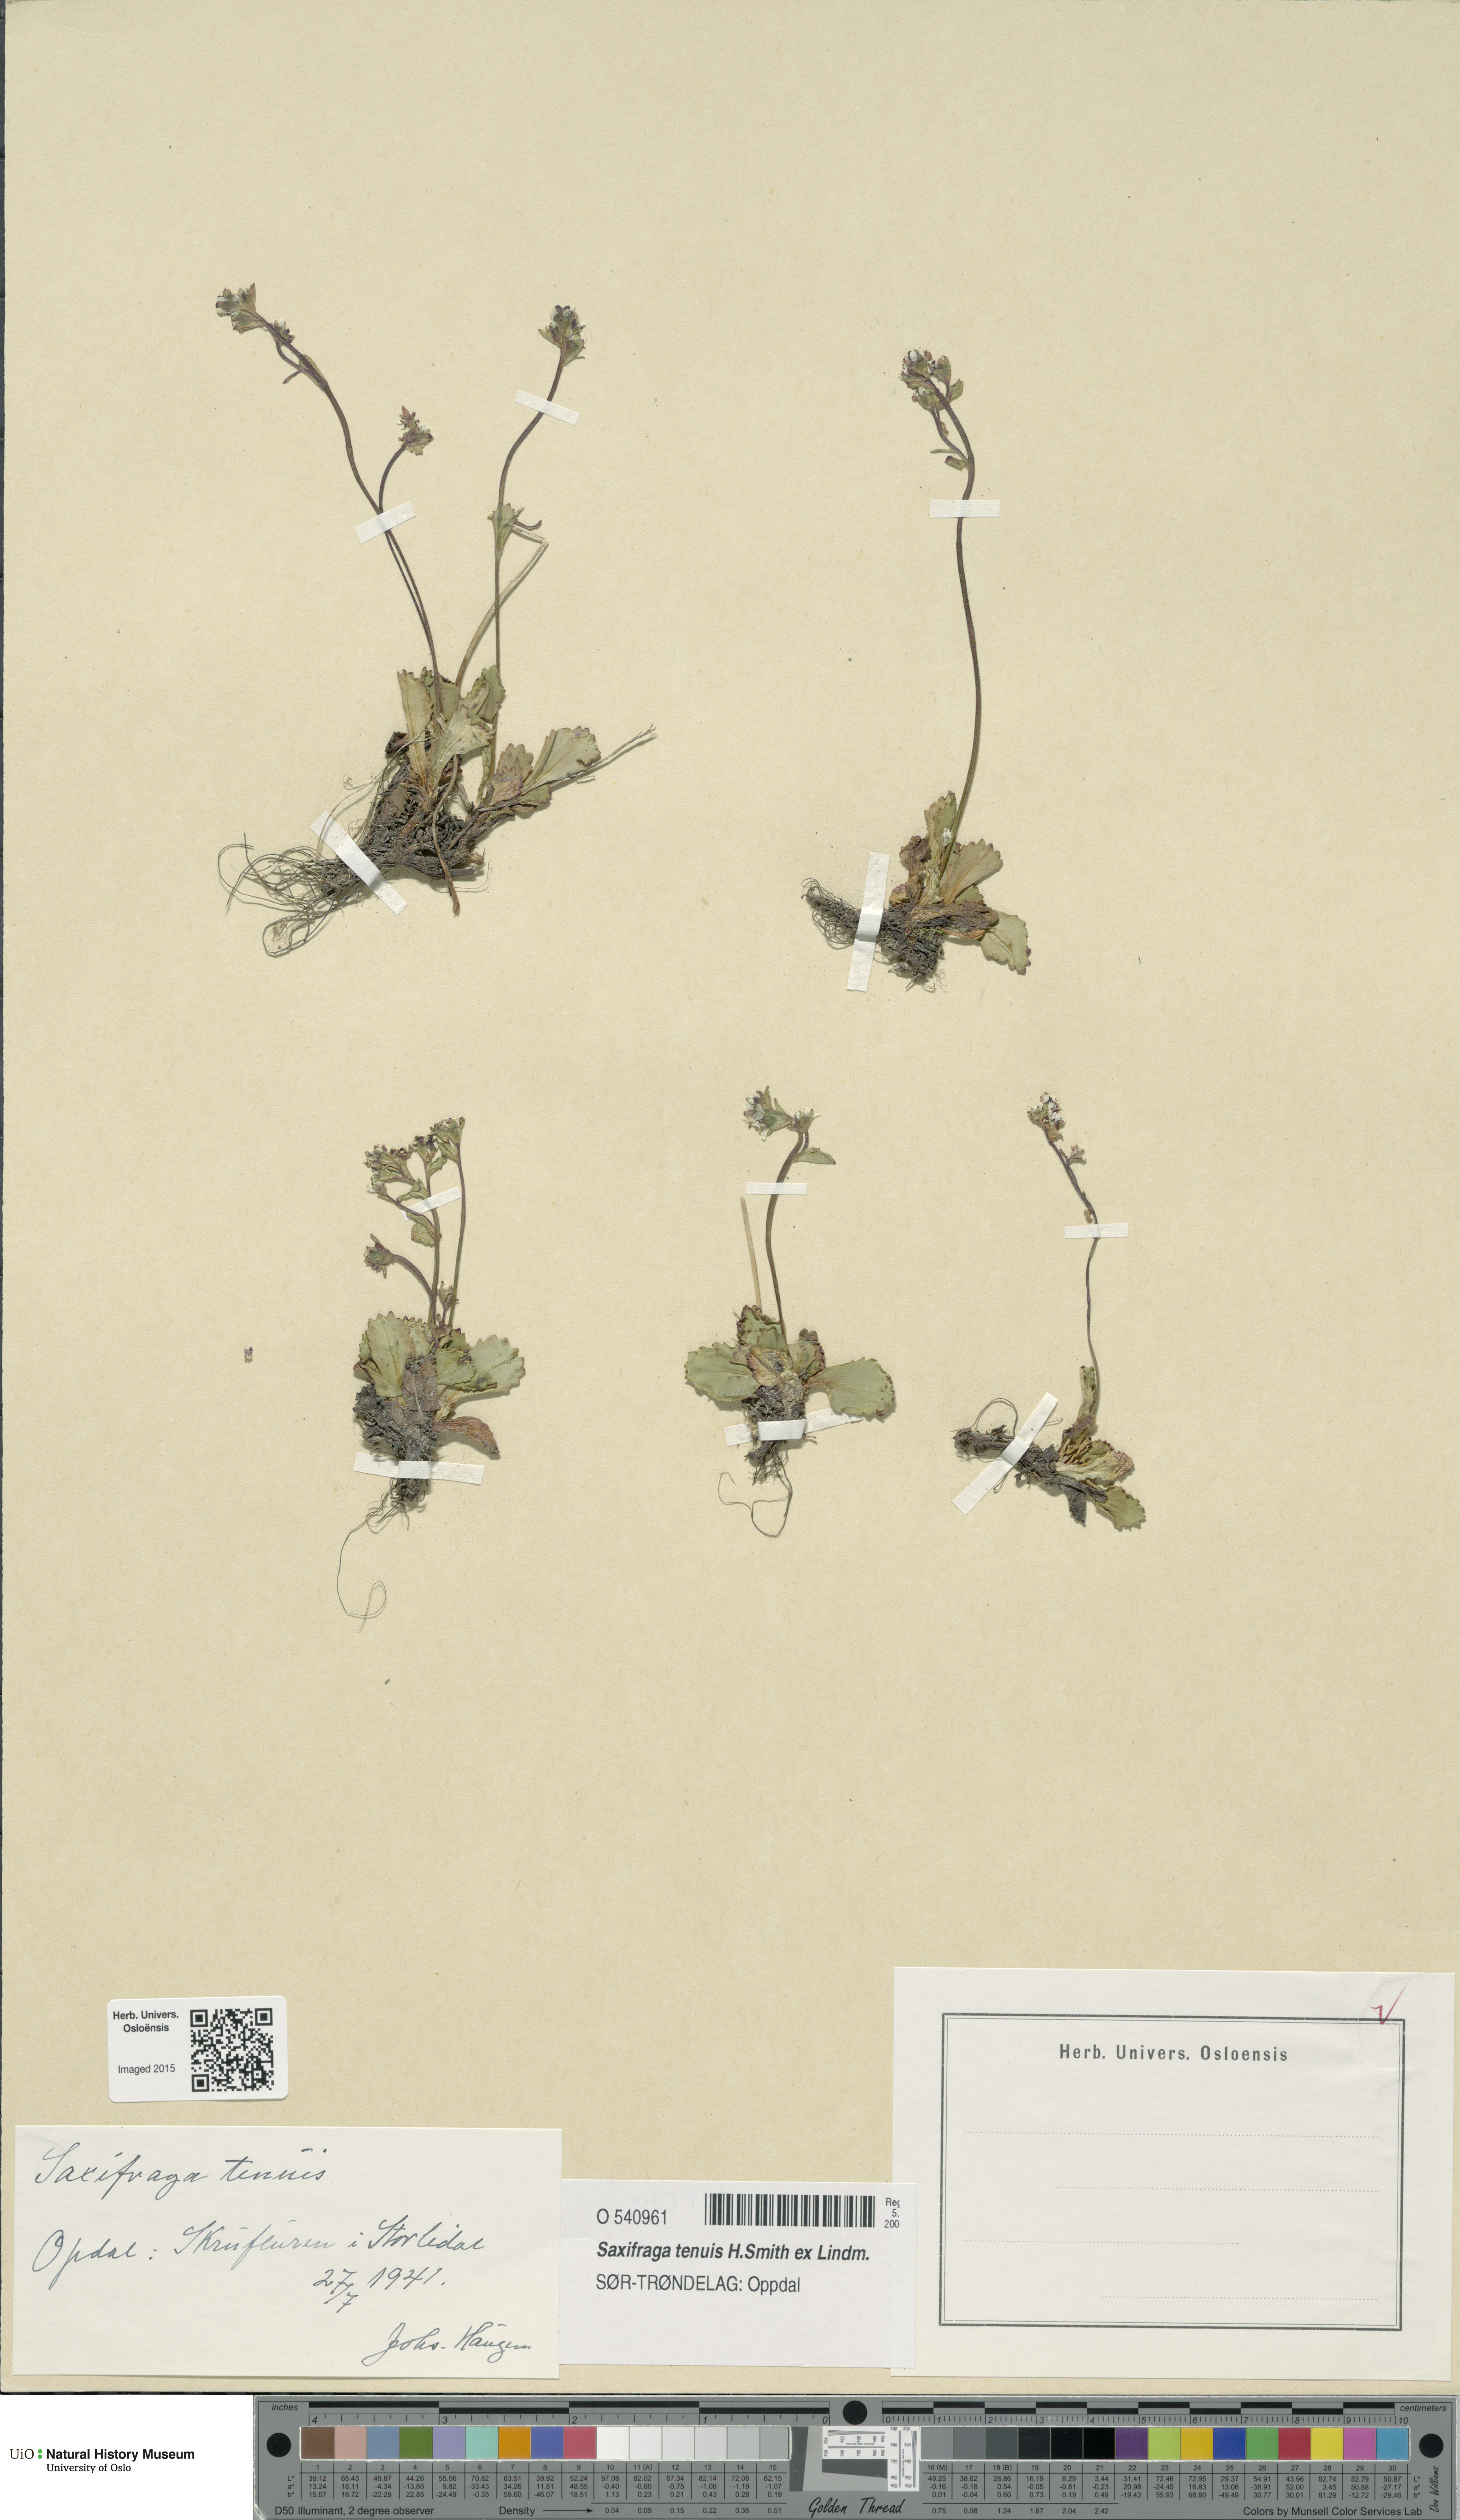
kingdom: Plantae
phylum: Tracheophyta
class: Magnoliopsida
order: Saxifragales
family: Saxifragaceae
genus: Micranthes
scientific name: Micranthes tenuis
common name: Ottertail pass saxifrage
